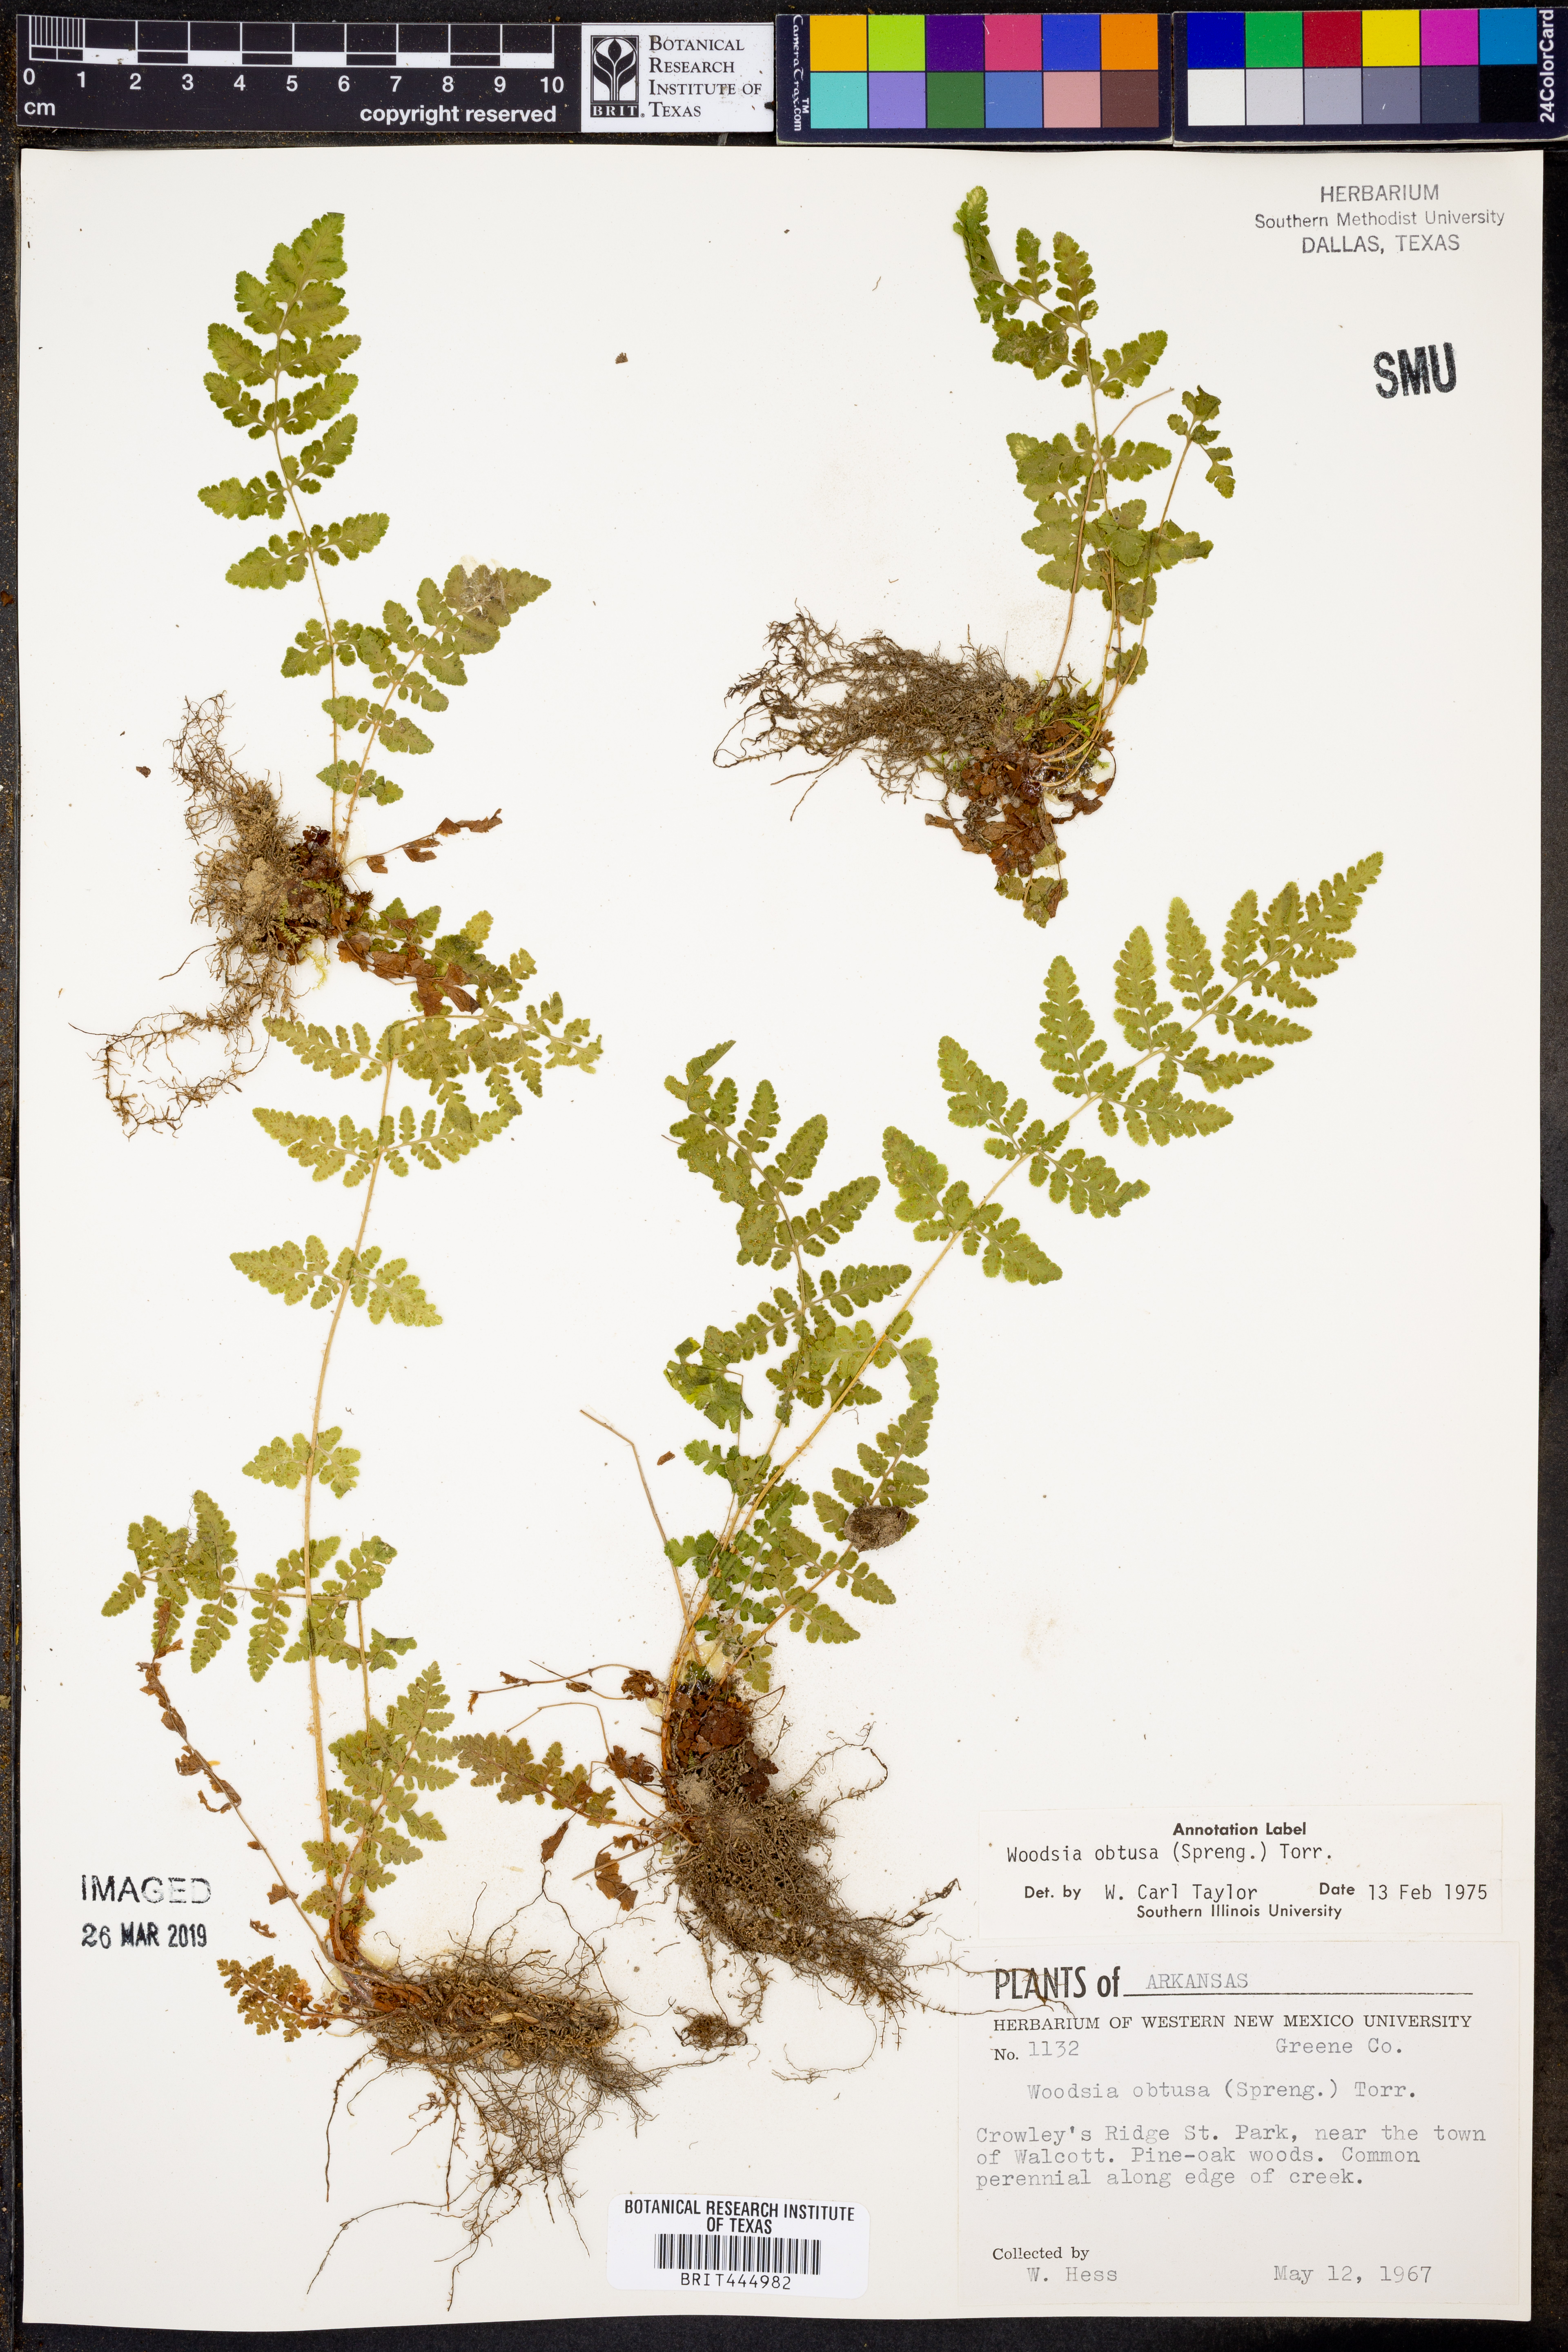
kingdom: Plantae
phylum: Tracheophyta
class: Polypodiopsida
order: Polypodiales
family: Woodsiaceae
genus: Physematium
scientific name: Physematium obtusum
